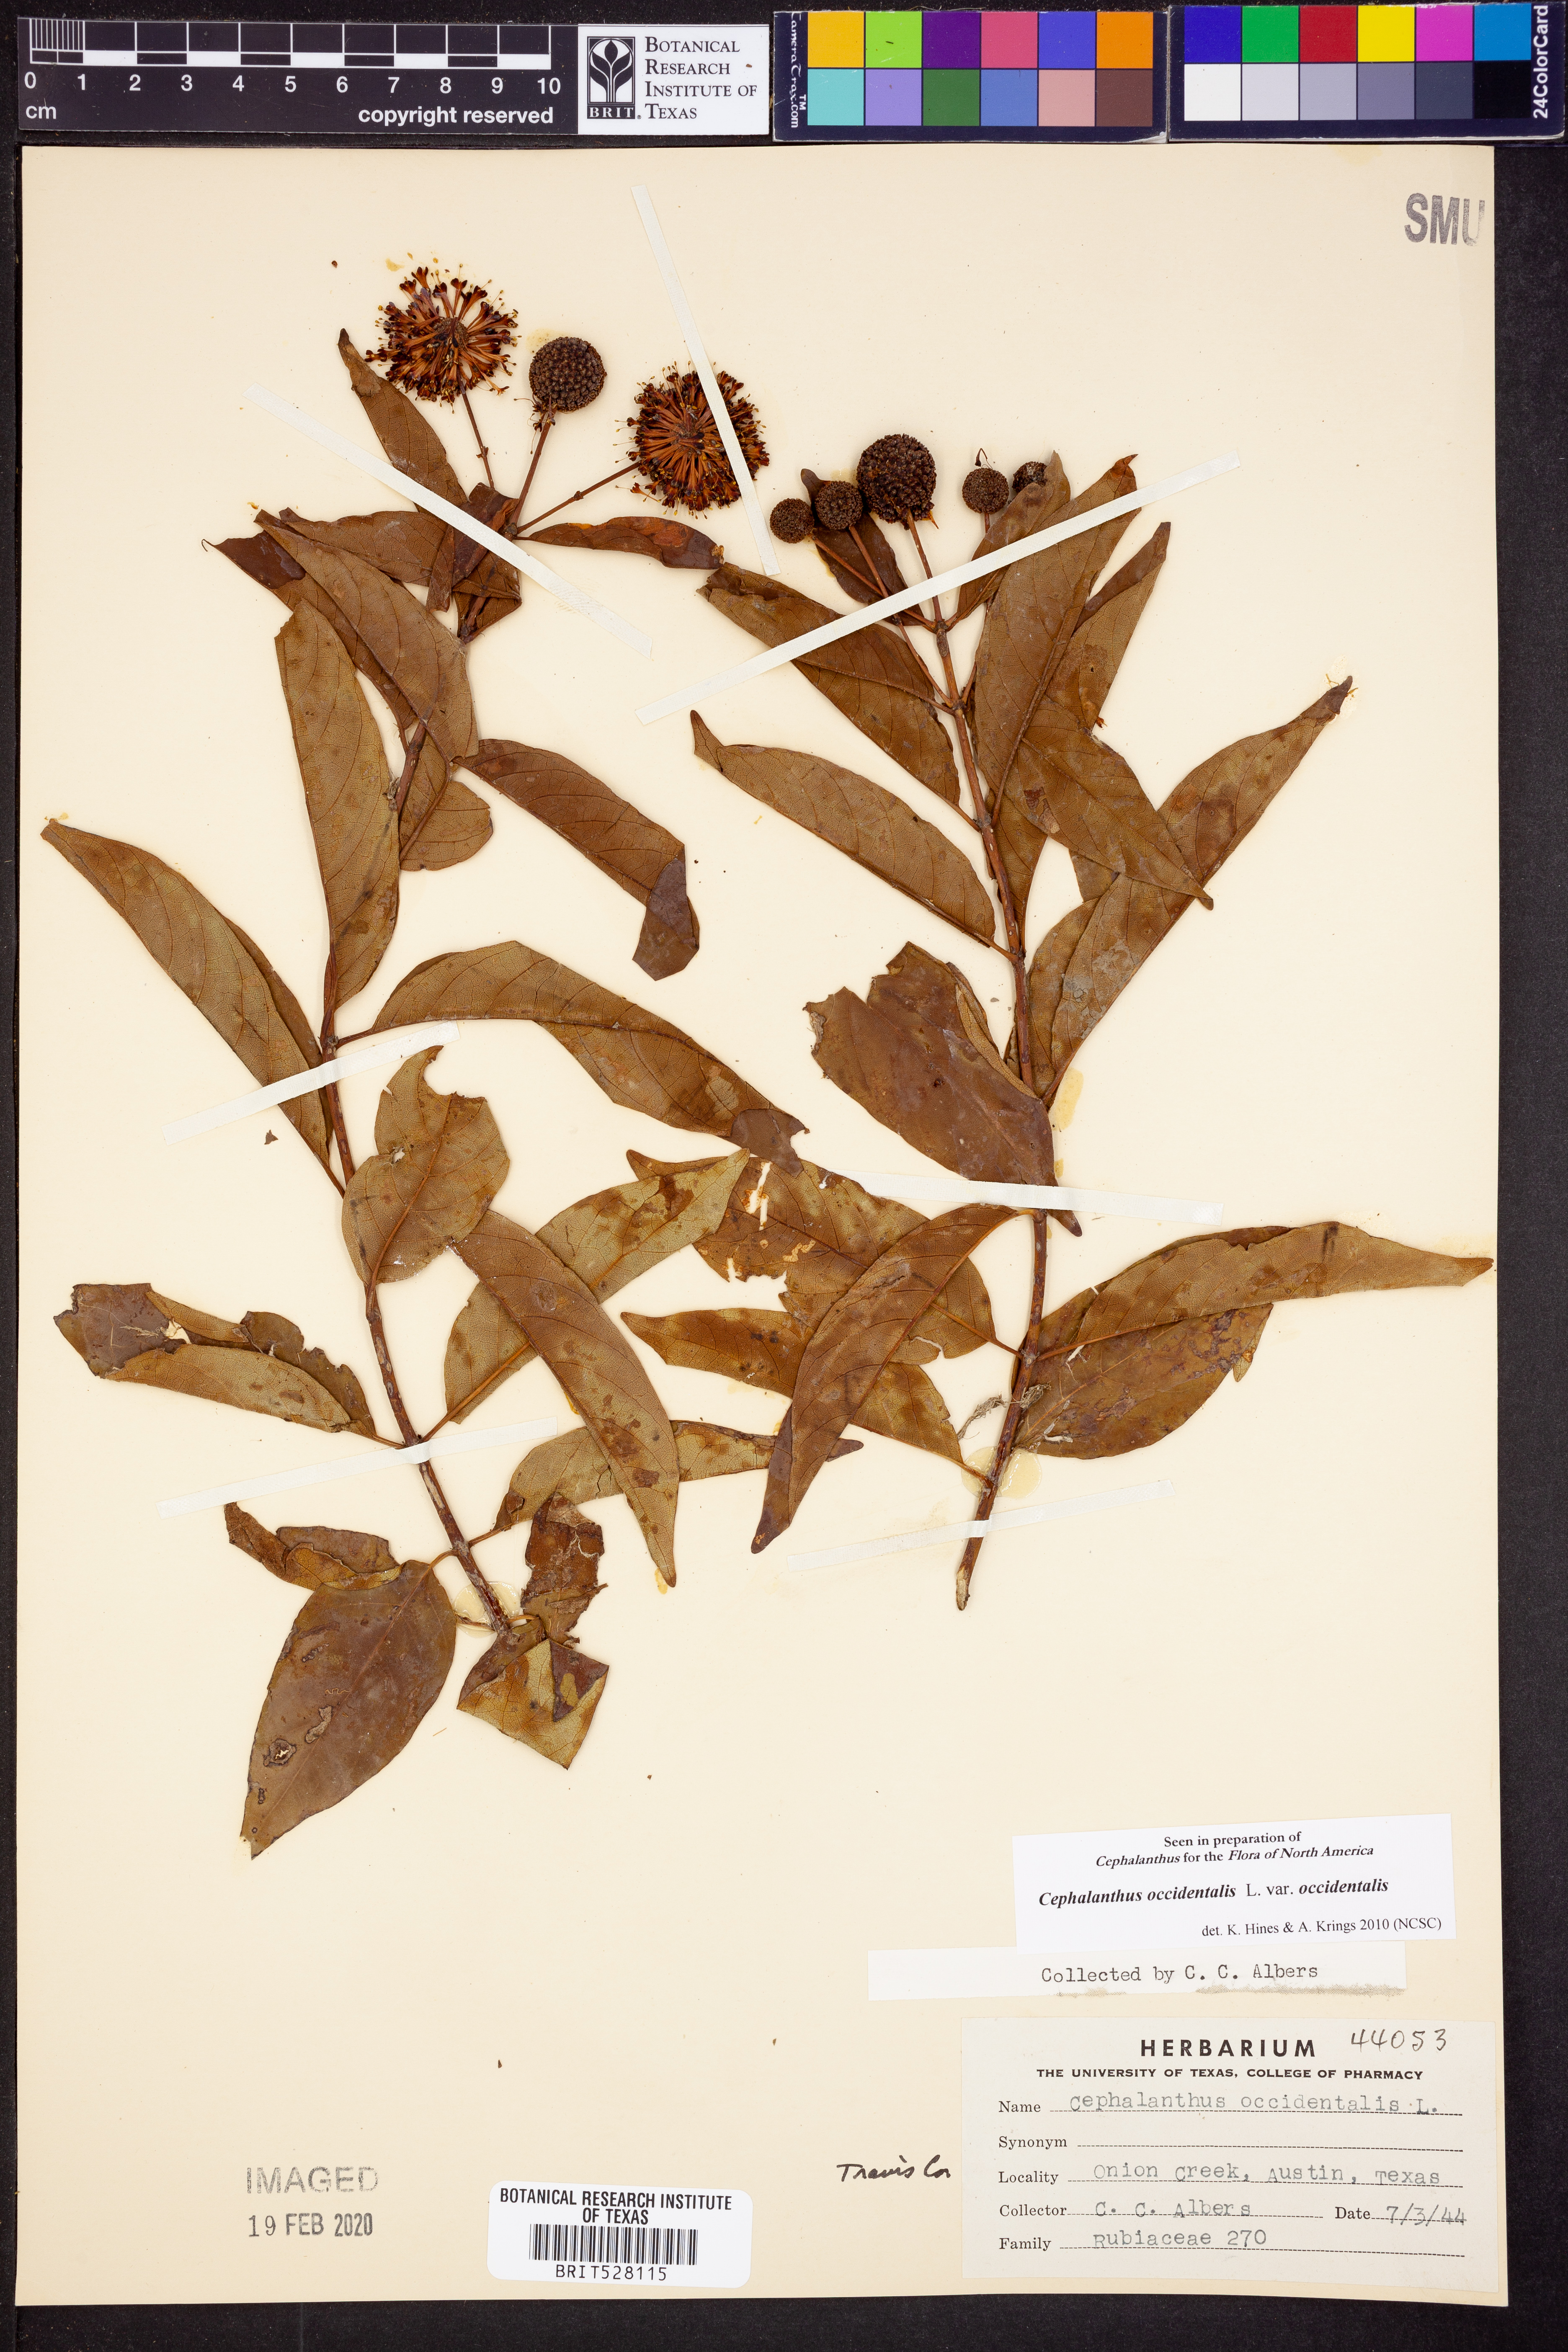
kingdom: Plantae
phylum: Tracheophyta
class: Magnoliopsida
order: Gentianales
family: Rubiaceae
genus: Cephalanthus
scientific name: Cephalanthus occidentalis
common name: Button-willow
